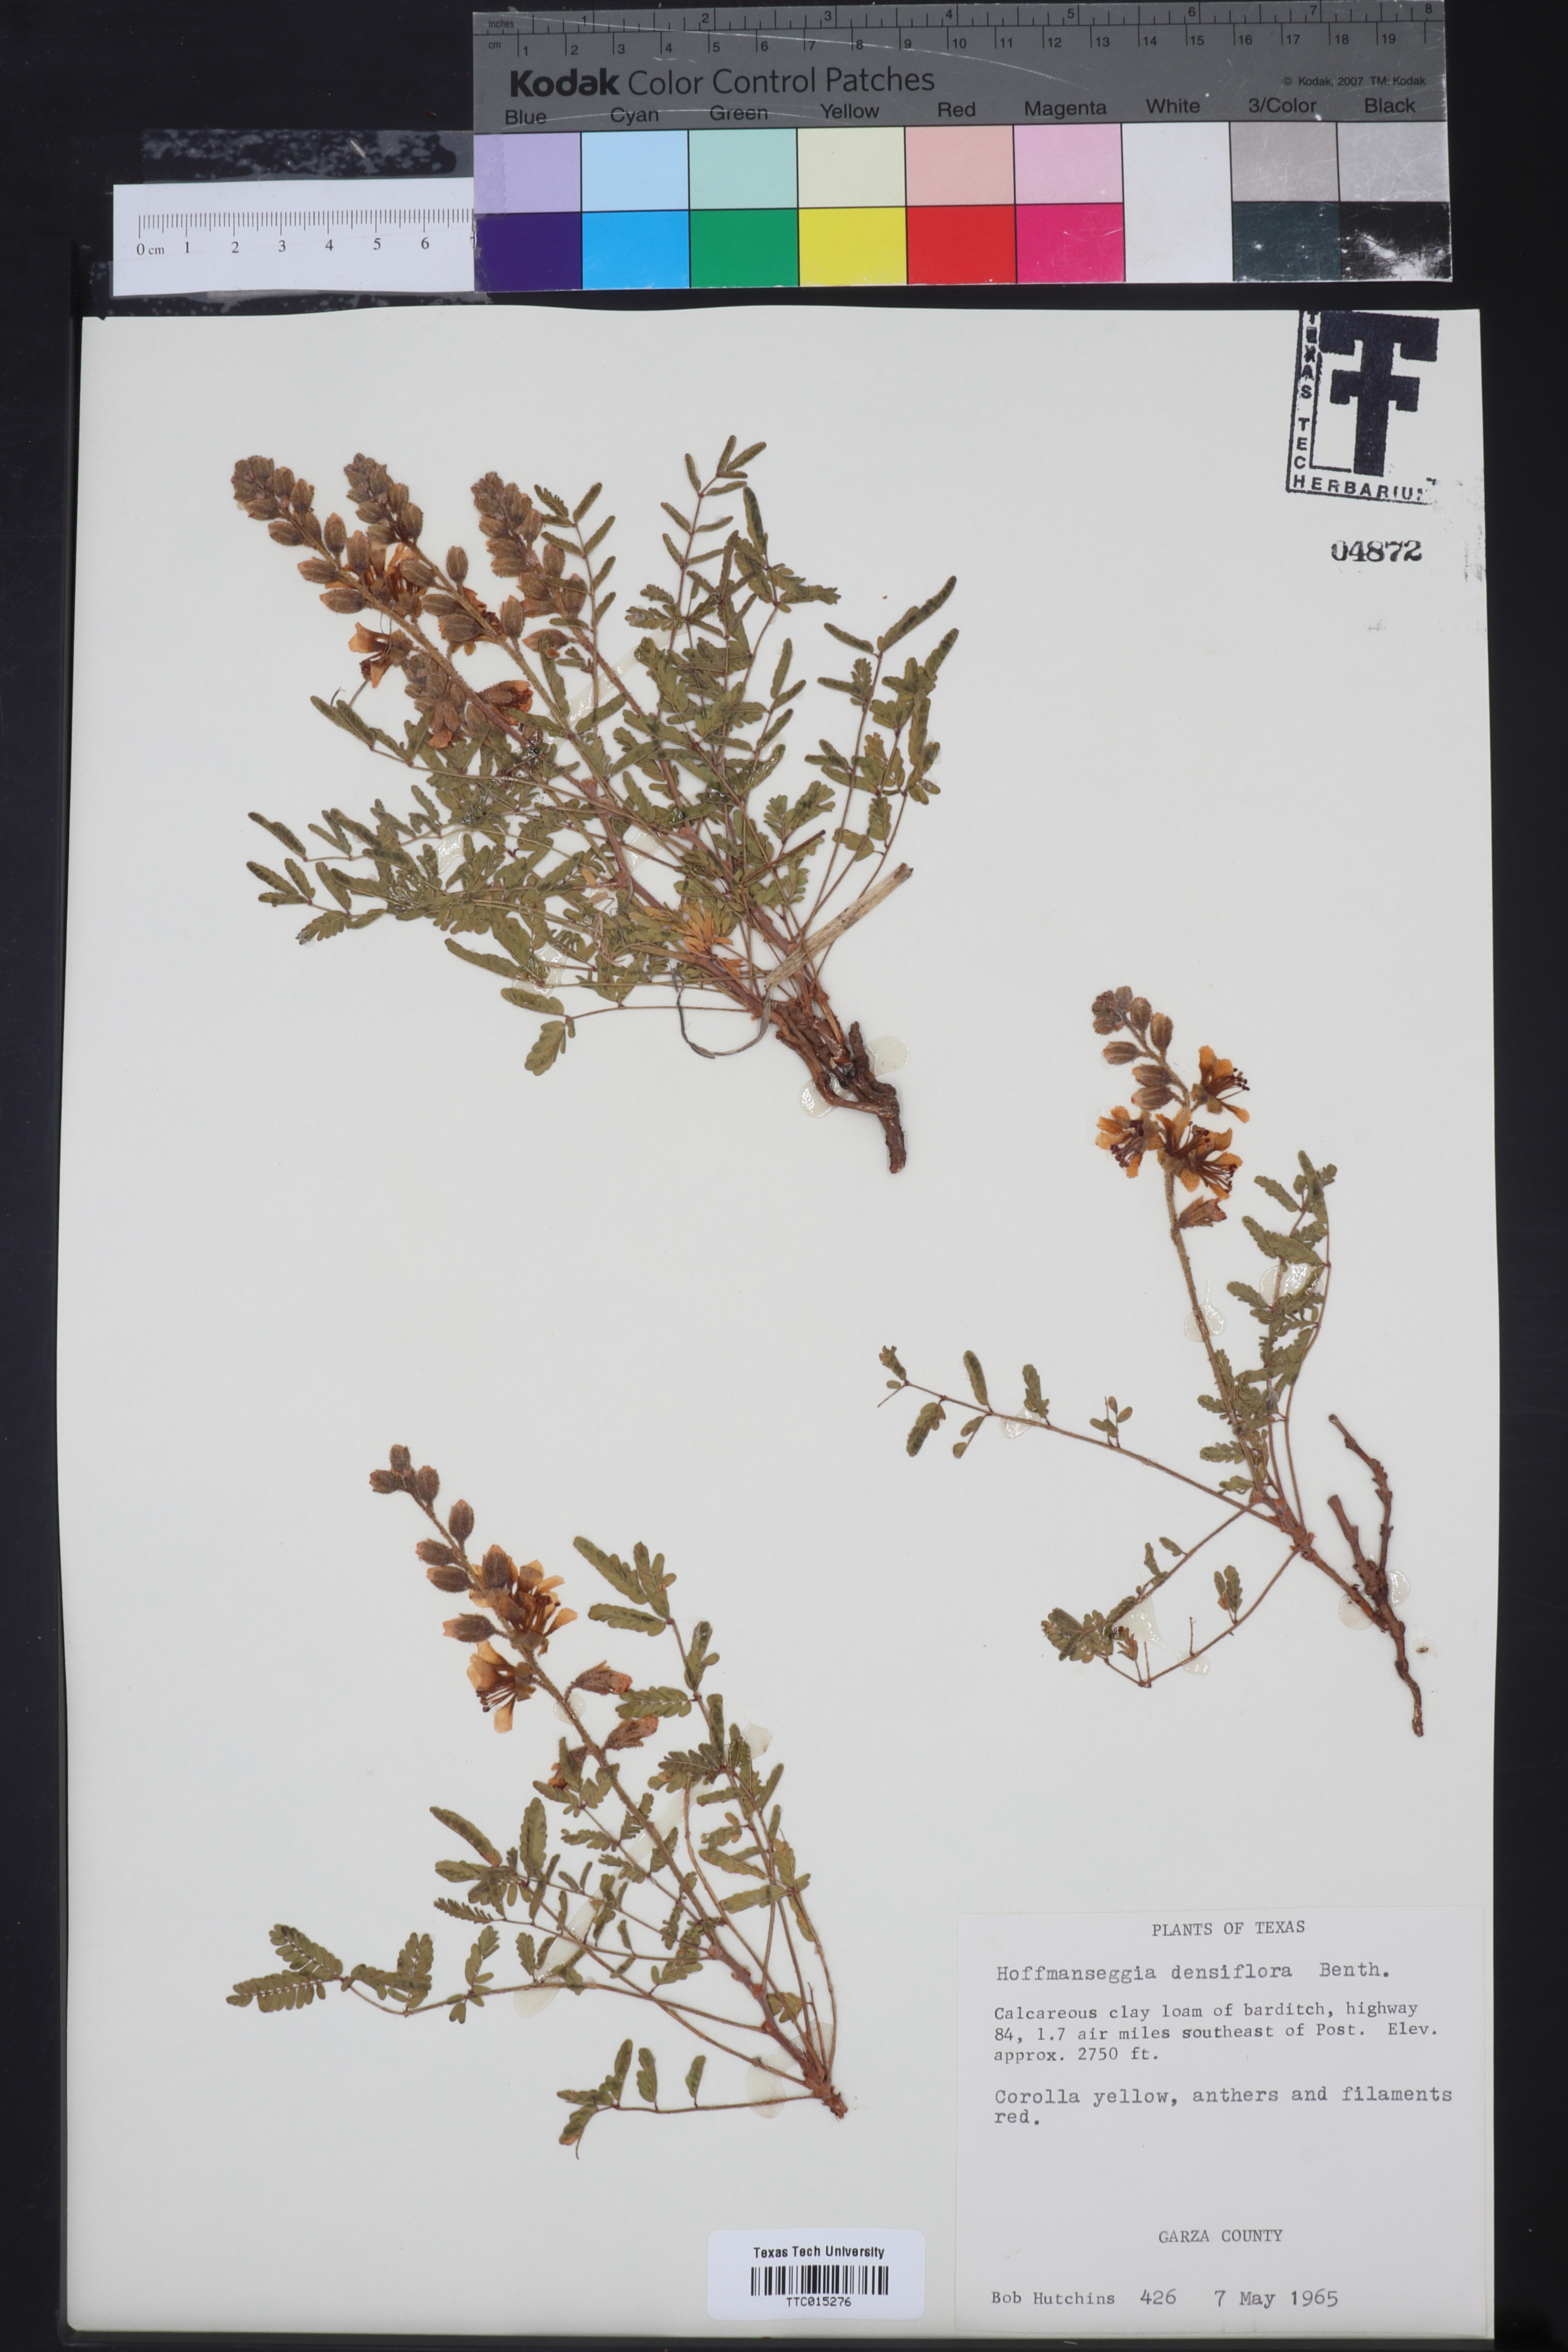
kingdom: Plantae
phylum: Tracheophyta
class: Magnoliopsida
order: Fabales
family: Fabaceae
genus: Hoffmannseggia
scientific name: Hoffmannseggia glauca
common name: Pignut
